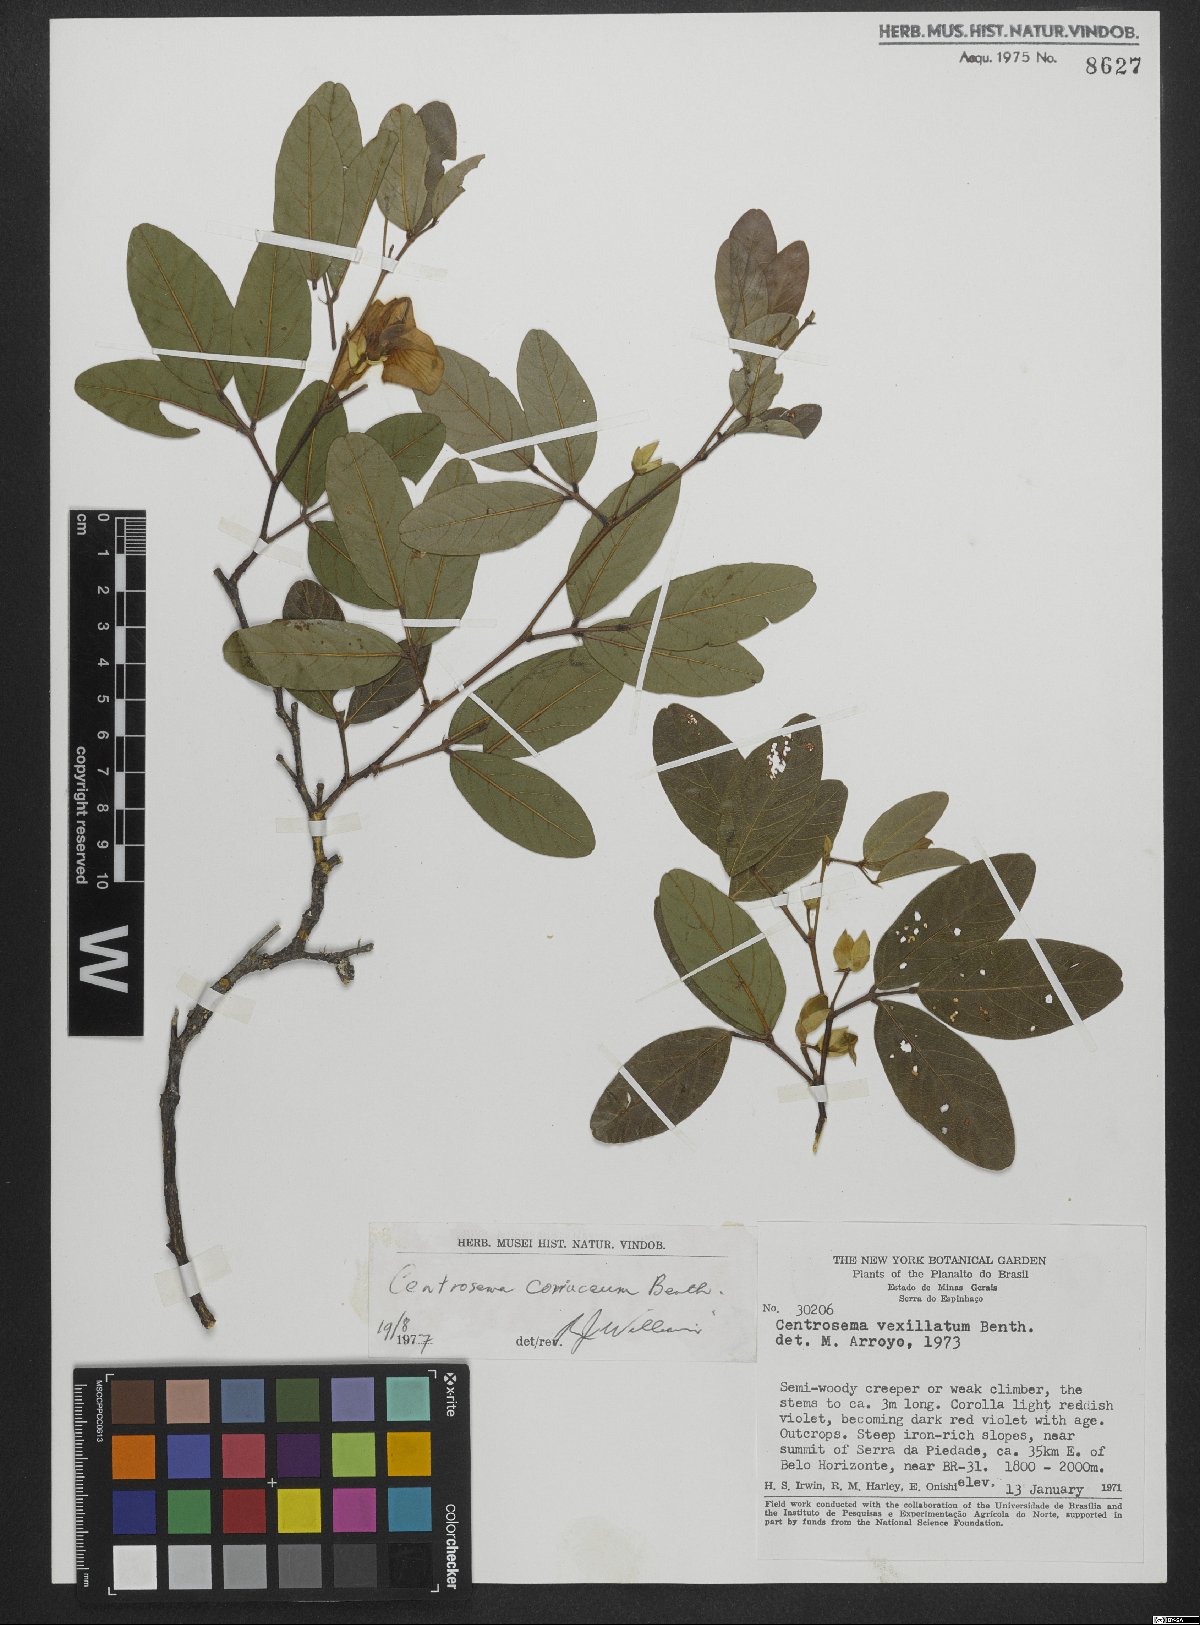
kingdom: Plantae
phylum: Tracheophyta
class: Magnoliopsida
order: Fabales
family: Fabaceae
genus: Centrosema
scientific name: Centrosema coriaceum
